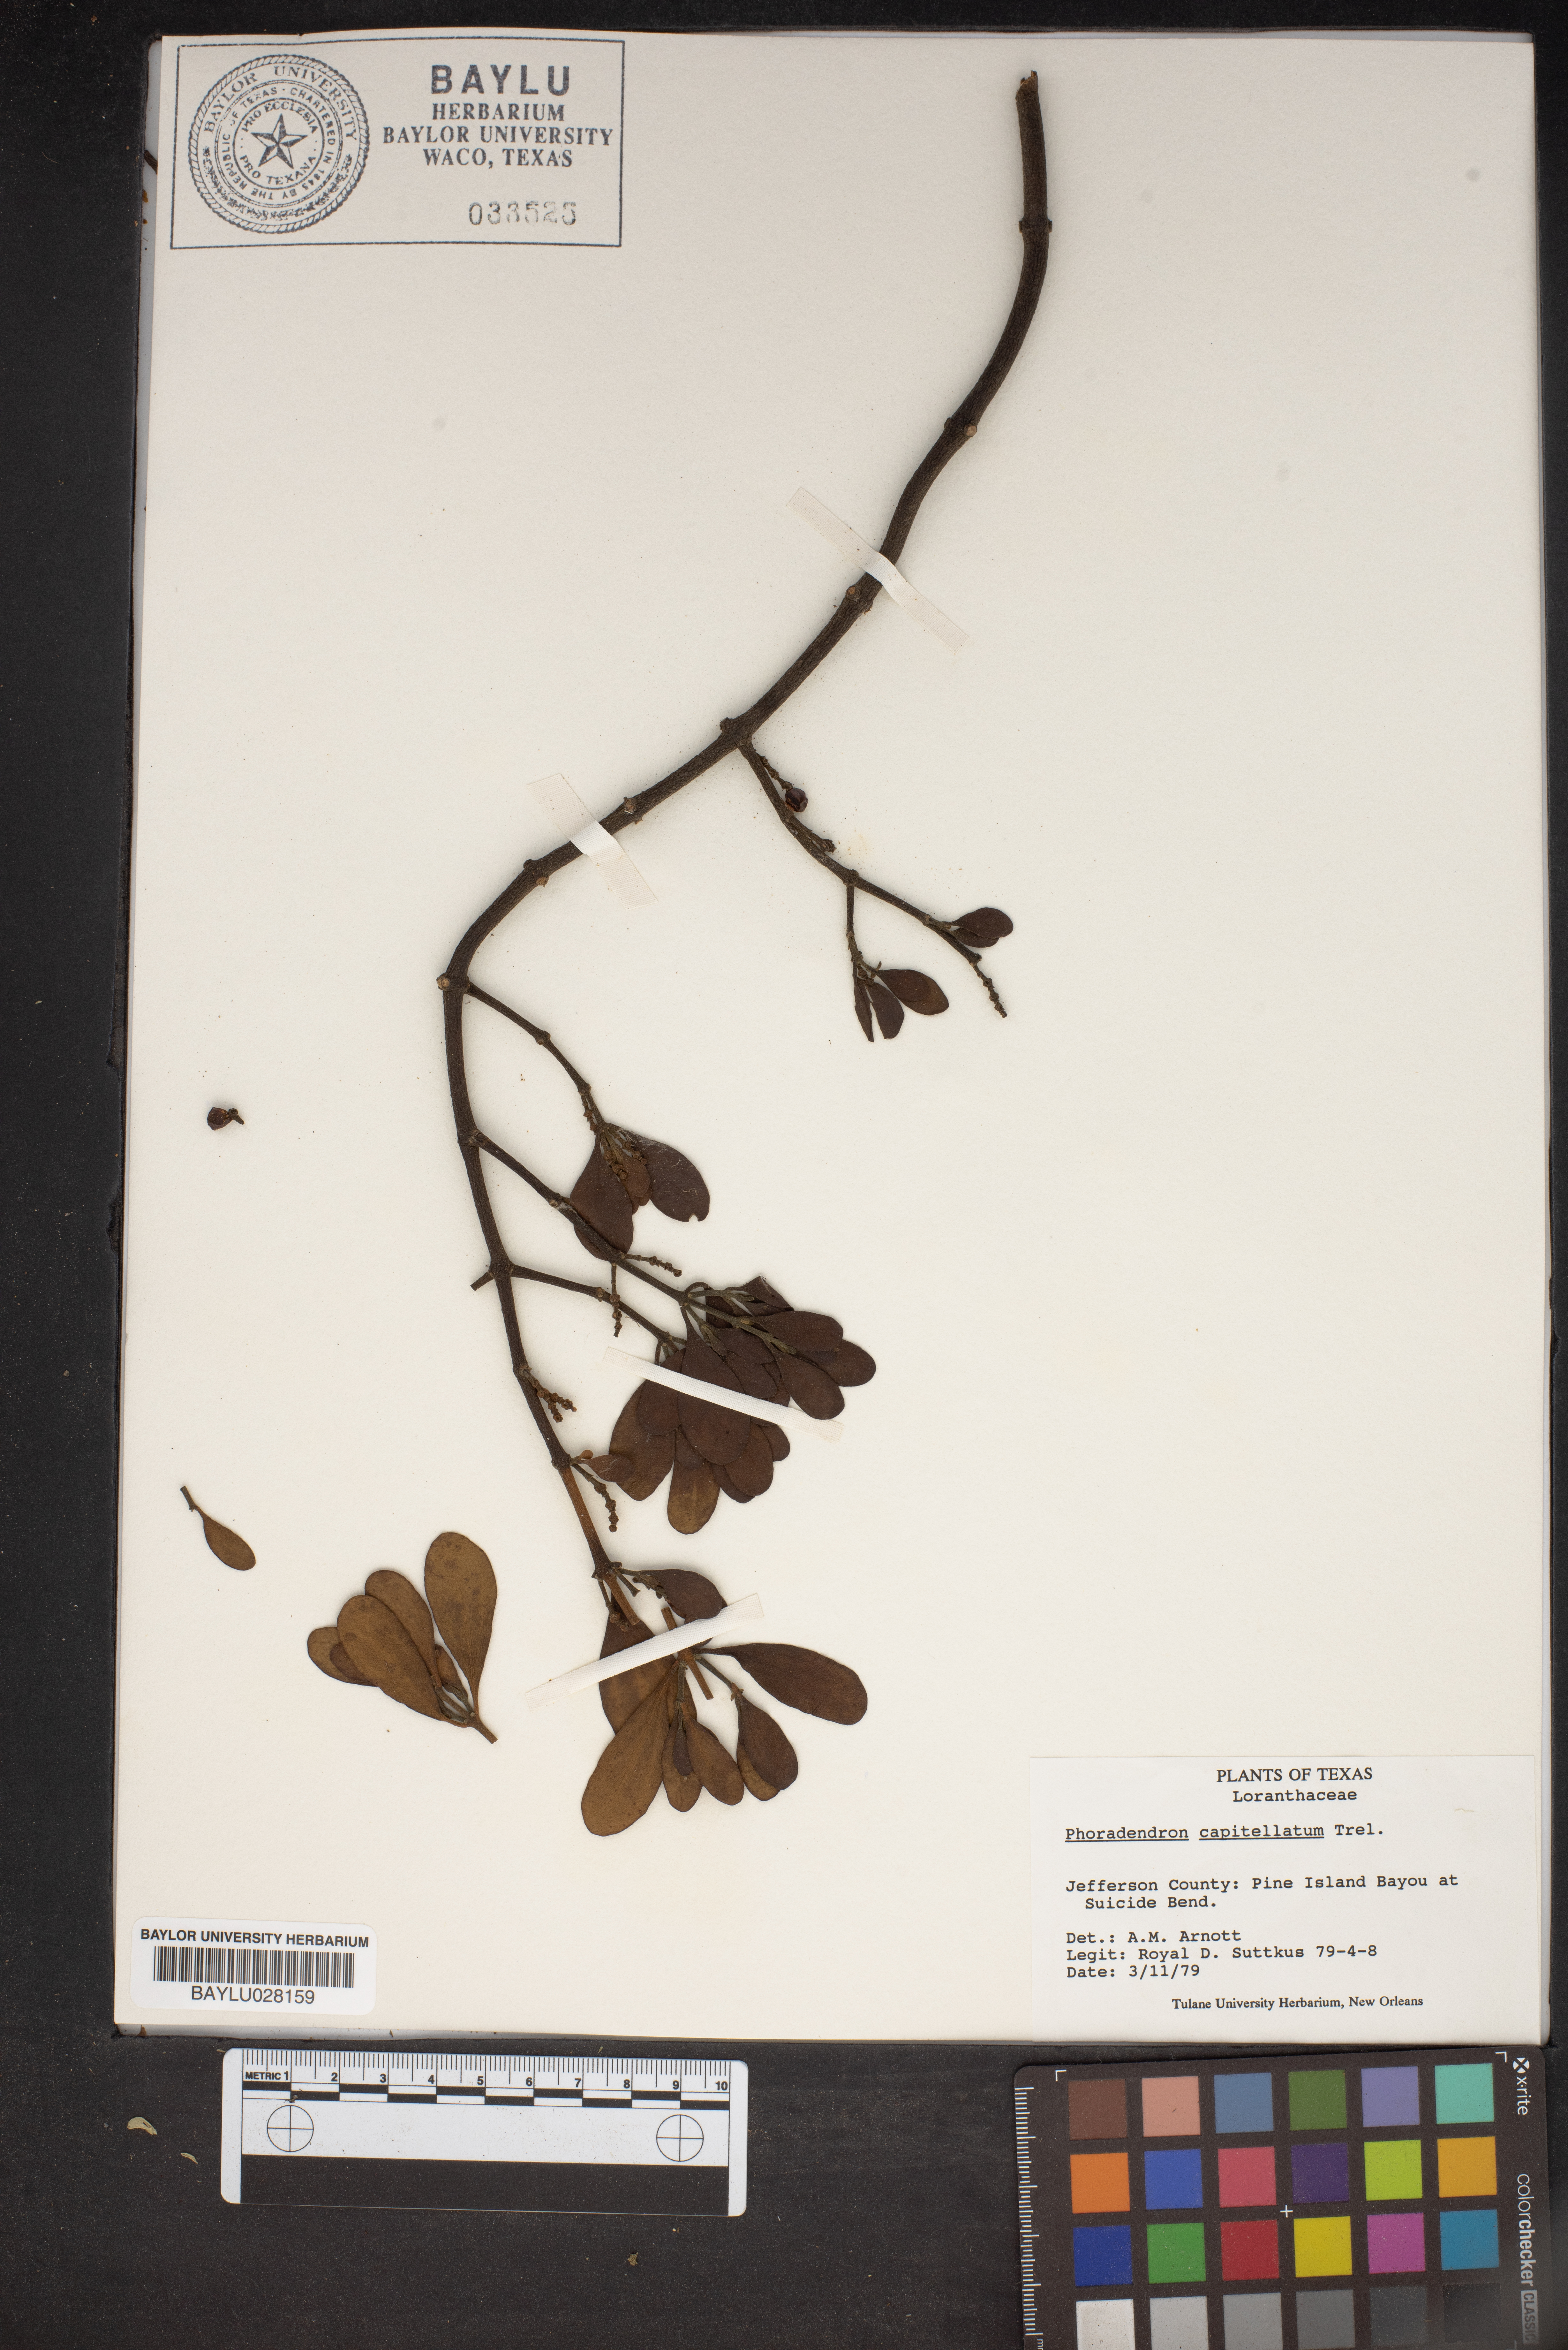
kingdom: Plantae
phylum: Tracheophyta
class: Magnoliopsida
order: Santalales
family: Viscaceae
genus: Phoradendron
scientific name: Phoradendron capitellatum
